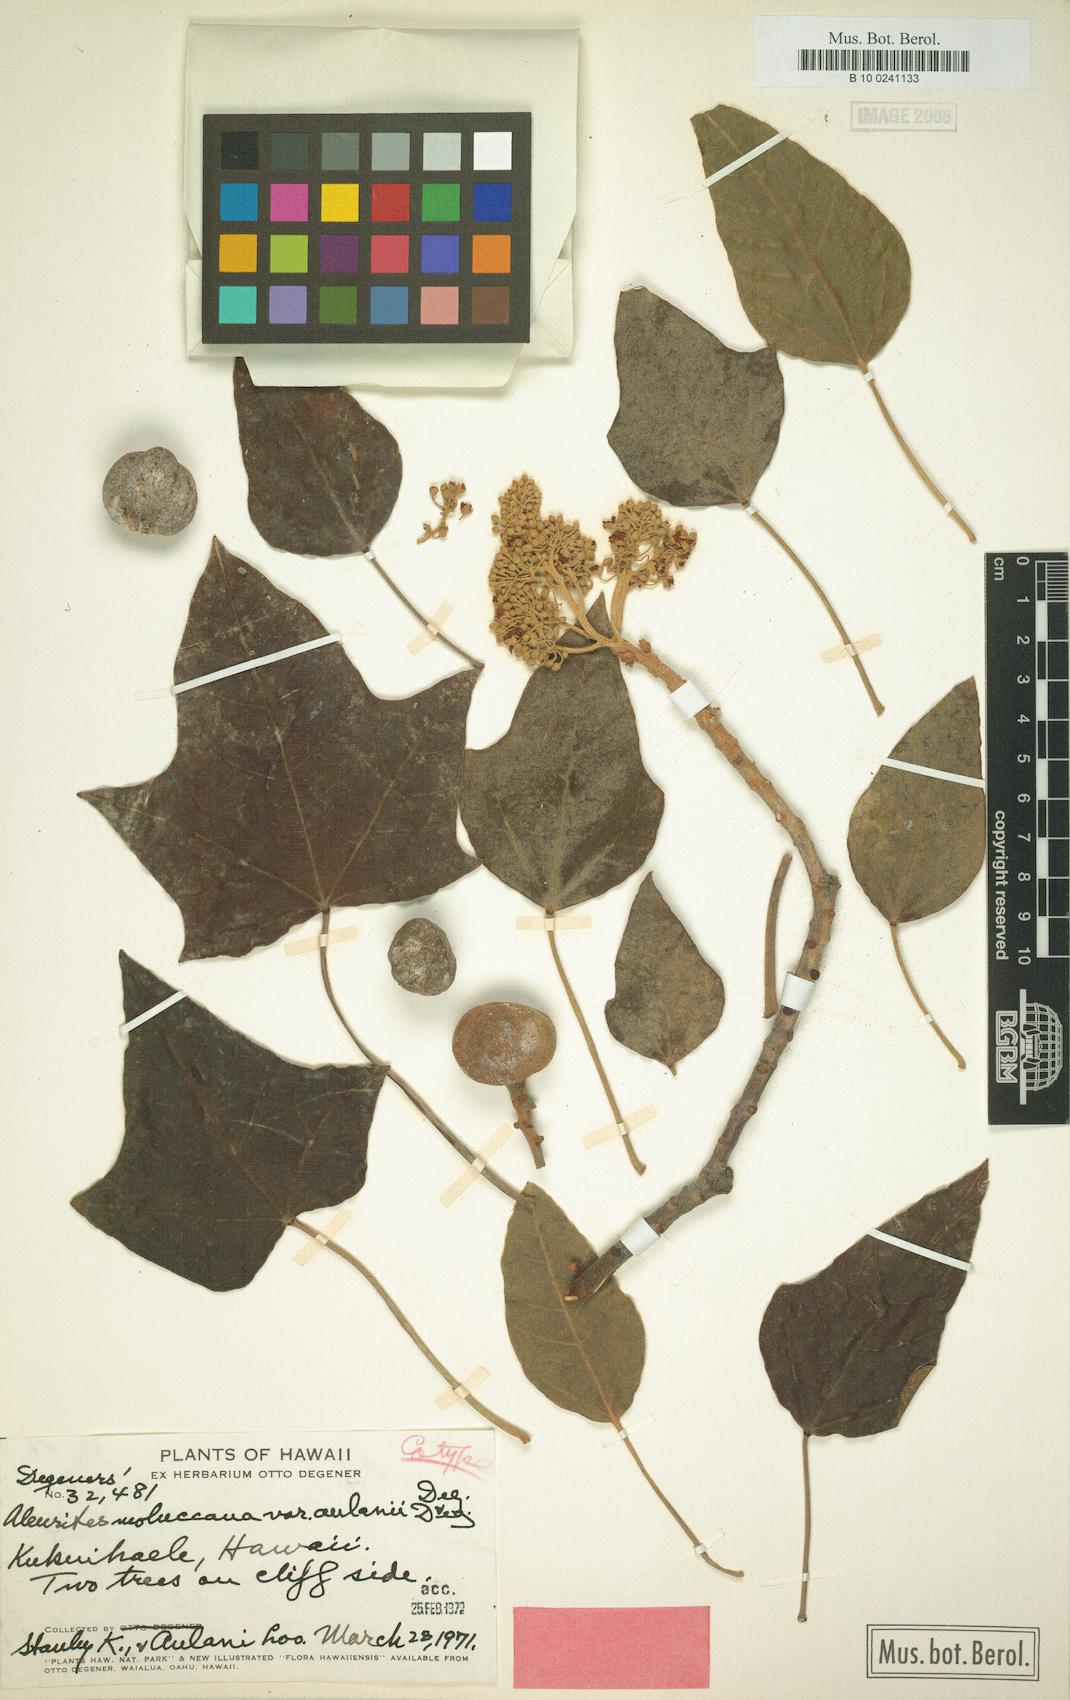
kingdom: Plantae
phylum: Tracheophyta
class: Magnoliopsida
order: Malpighiales
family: Euphorbiaceae
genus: Aleurites
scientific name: Aleurites moluccanus
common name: Candlenut tree
